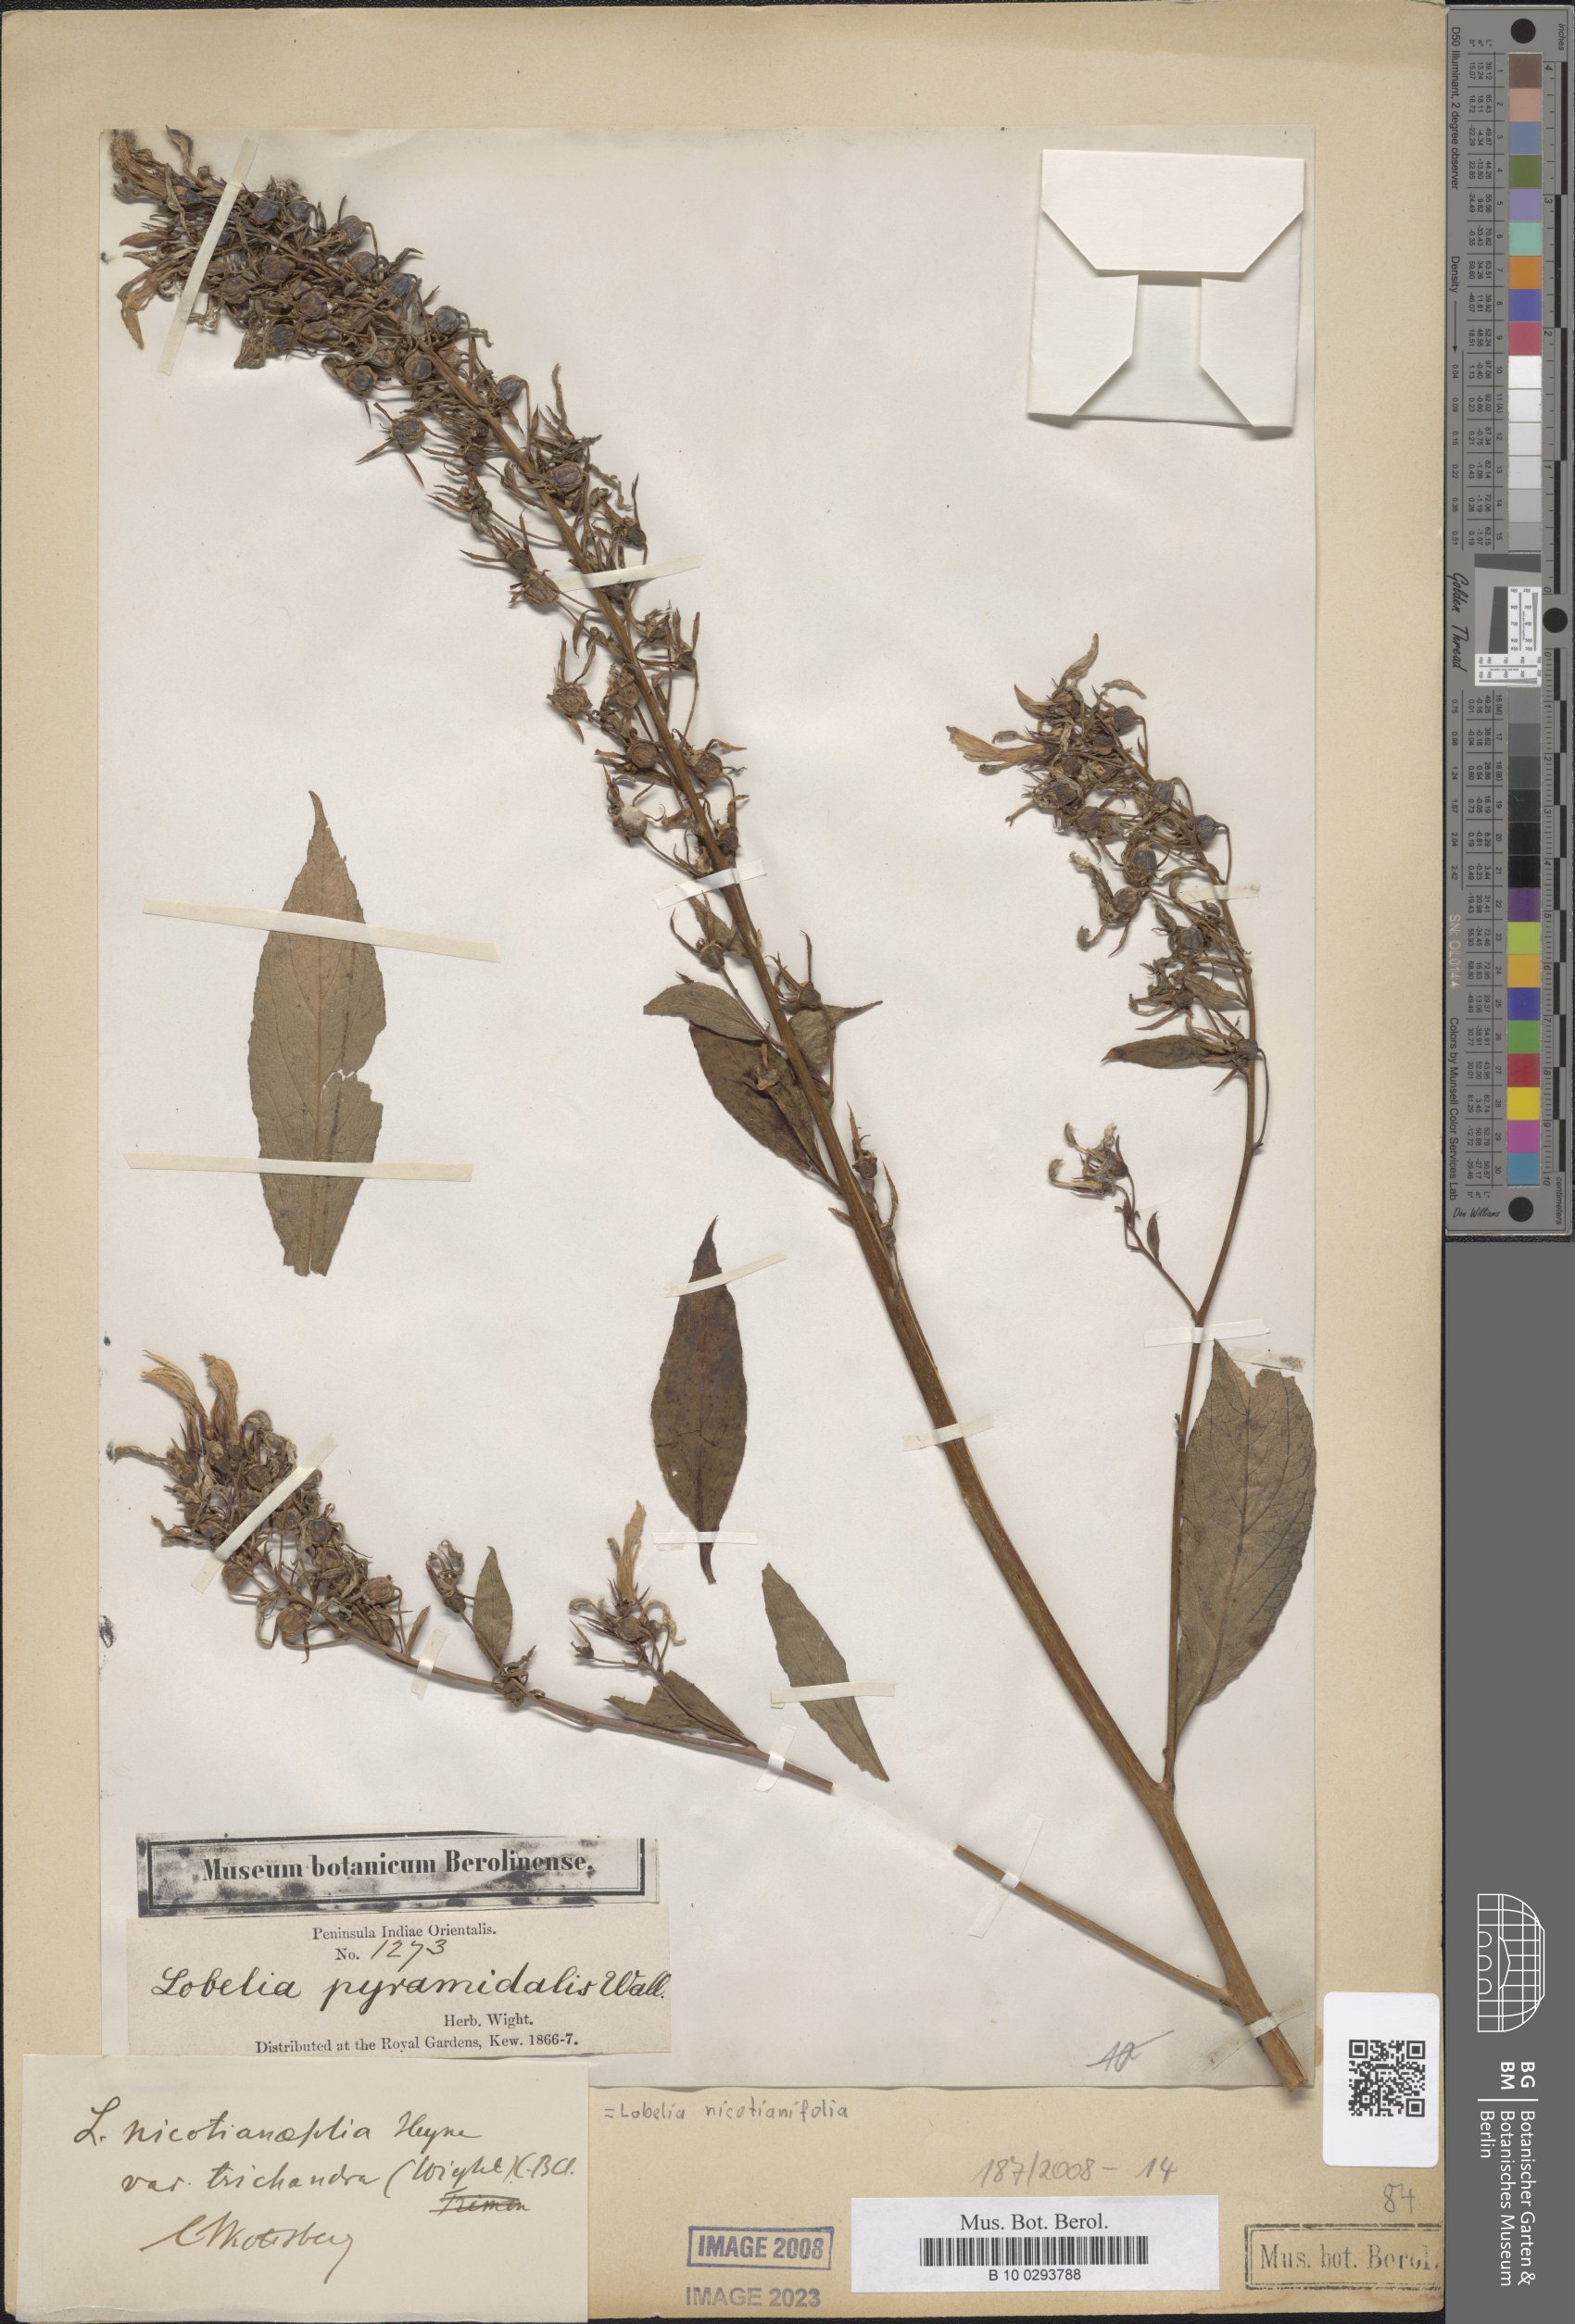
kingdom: Plantae
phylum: Tracheophyta
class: Magnoliopsida
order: Asterales
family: Campanulaceae
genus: Lobelia
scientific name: Lobelia nicotianifolia
